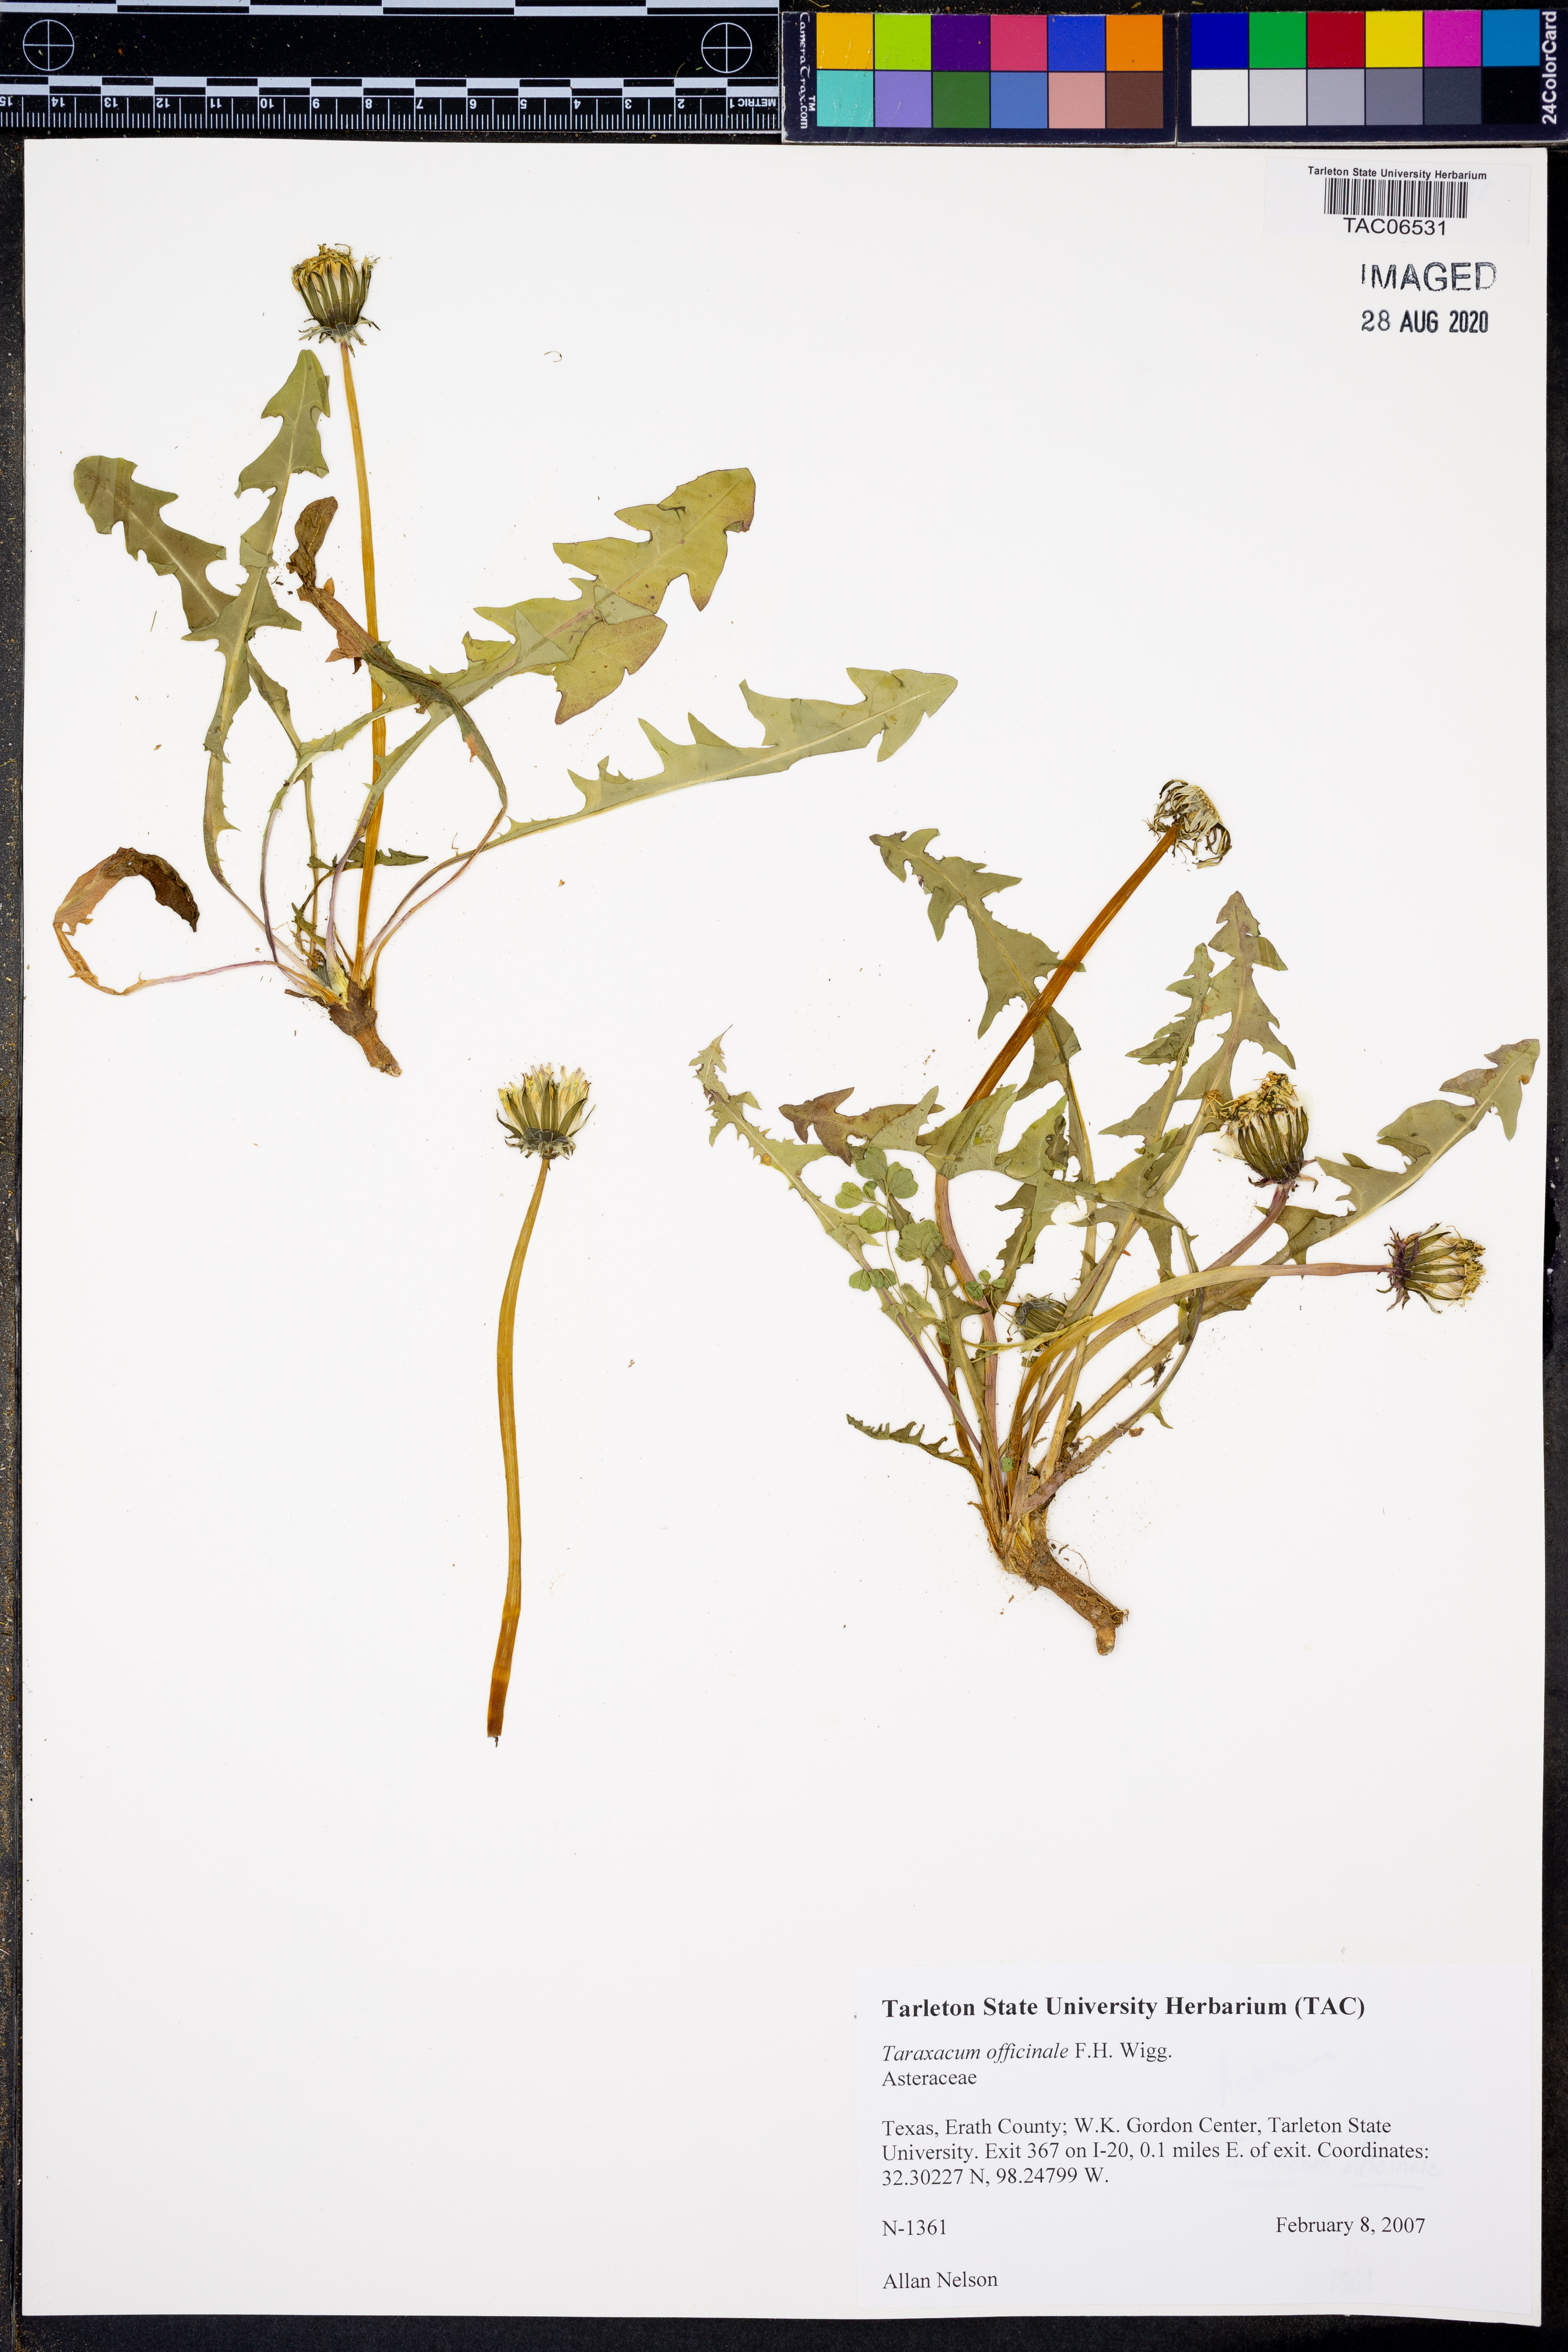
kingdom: Plantae
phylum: Tracheophyta
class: Magnoliopsida
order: Asterales
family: Asteraceae
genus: Taraxacum
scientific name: Taraxacum officinale
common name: Common dandelion
